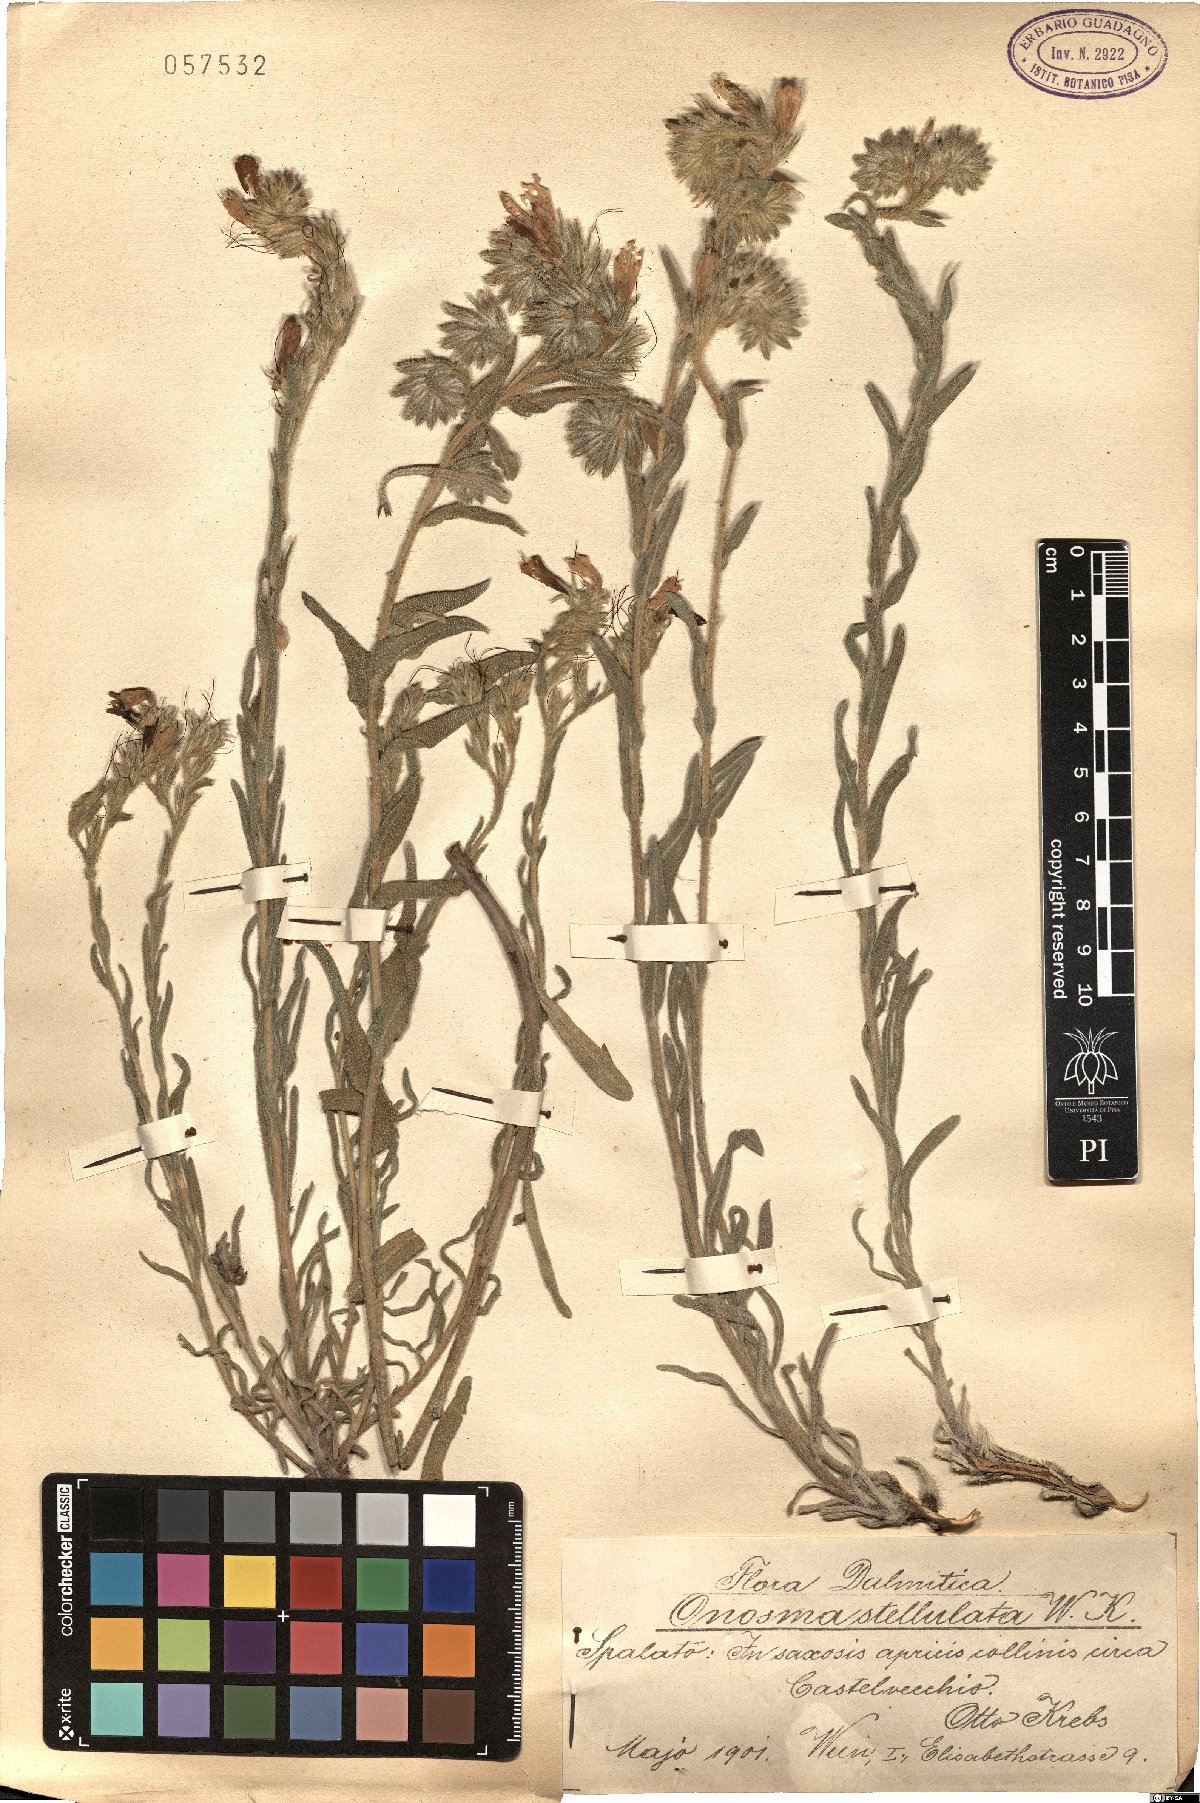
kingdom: Plantae
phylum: Tracheophyta
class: Magnoliopsida
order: Boraginales
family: Boraginaceae
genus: Onosma
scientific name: Onosma stellulata
